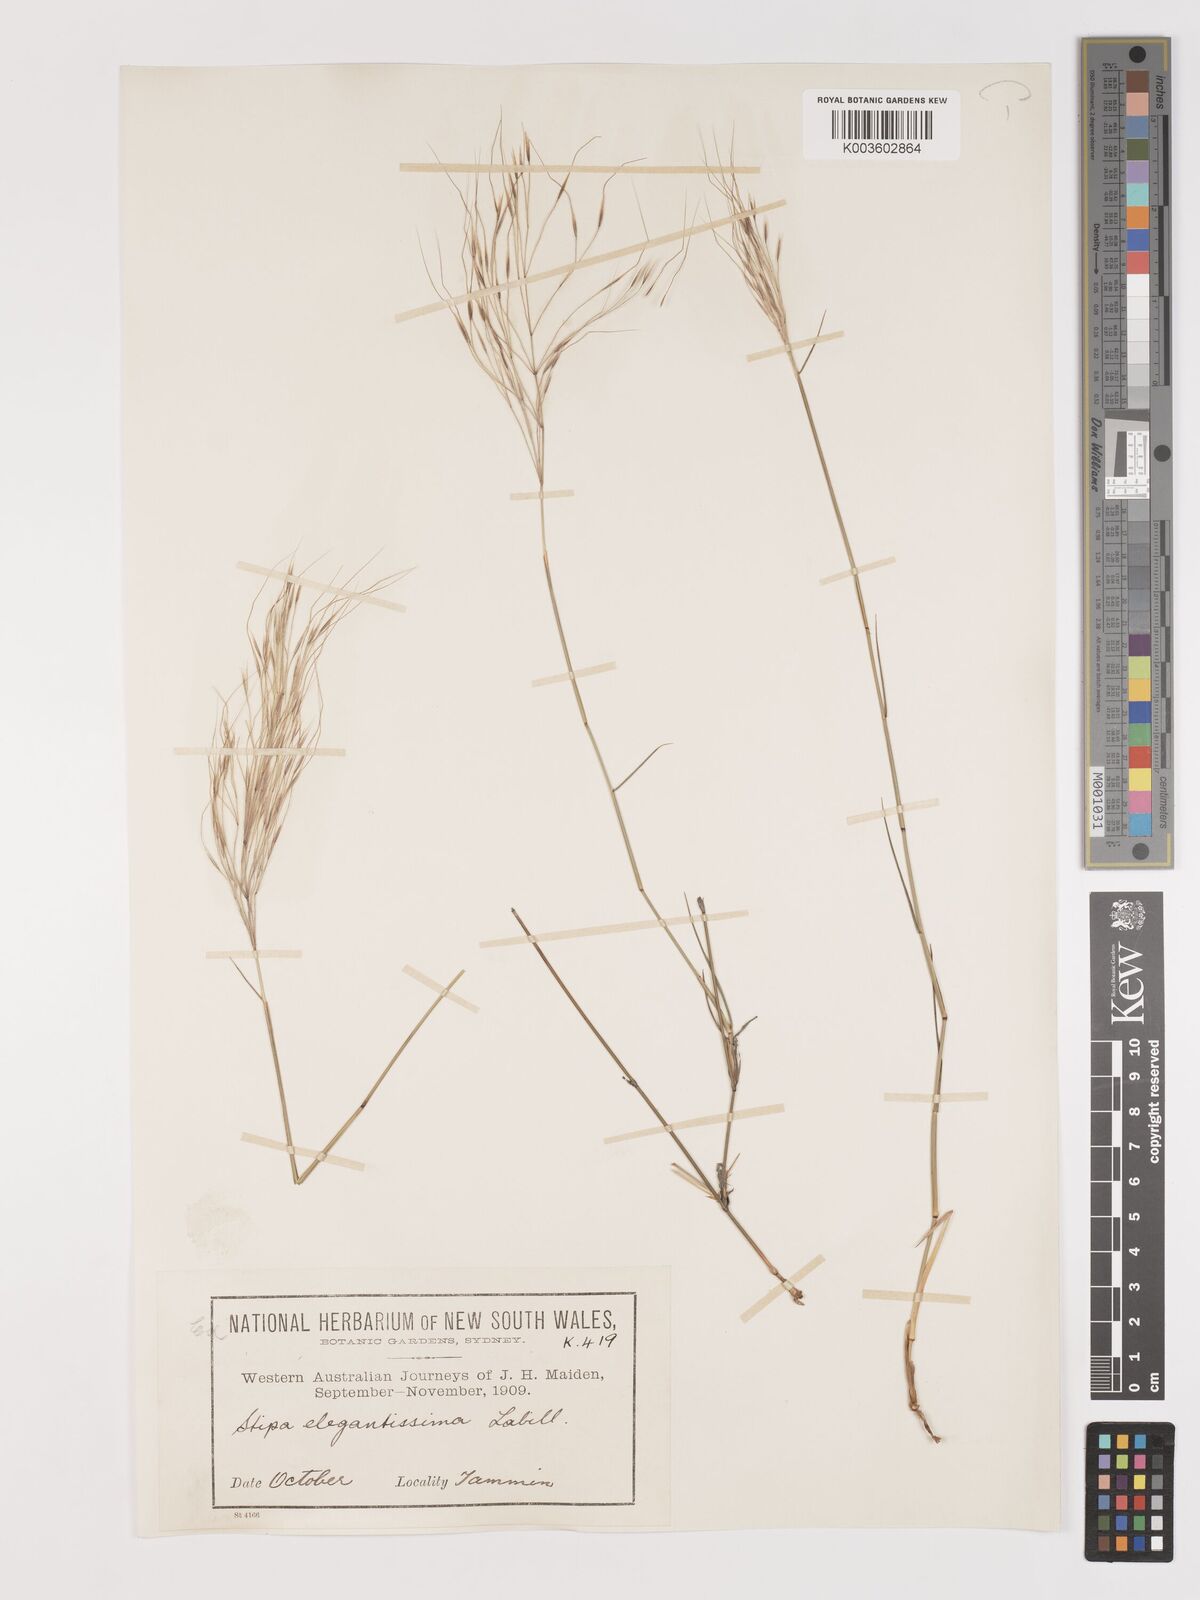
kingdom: Plantae
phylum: Tracheophyta
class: Liliopsida
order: Poales
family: Poaceae
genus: Austrostipa
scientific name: Austrostipa elegantissima
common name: Feather spear grass
